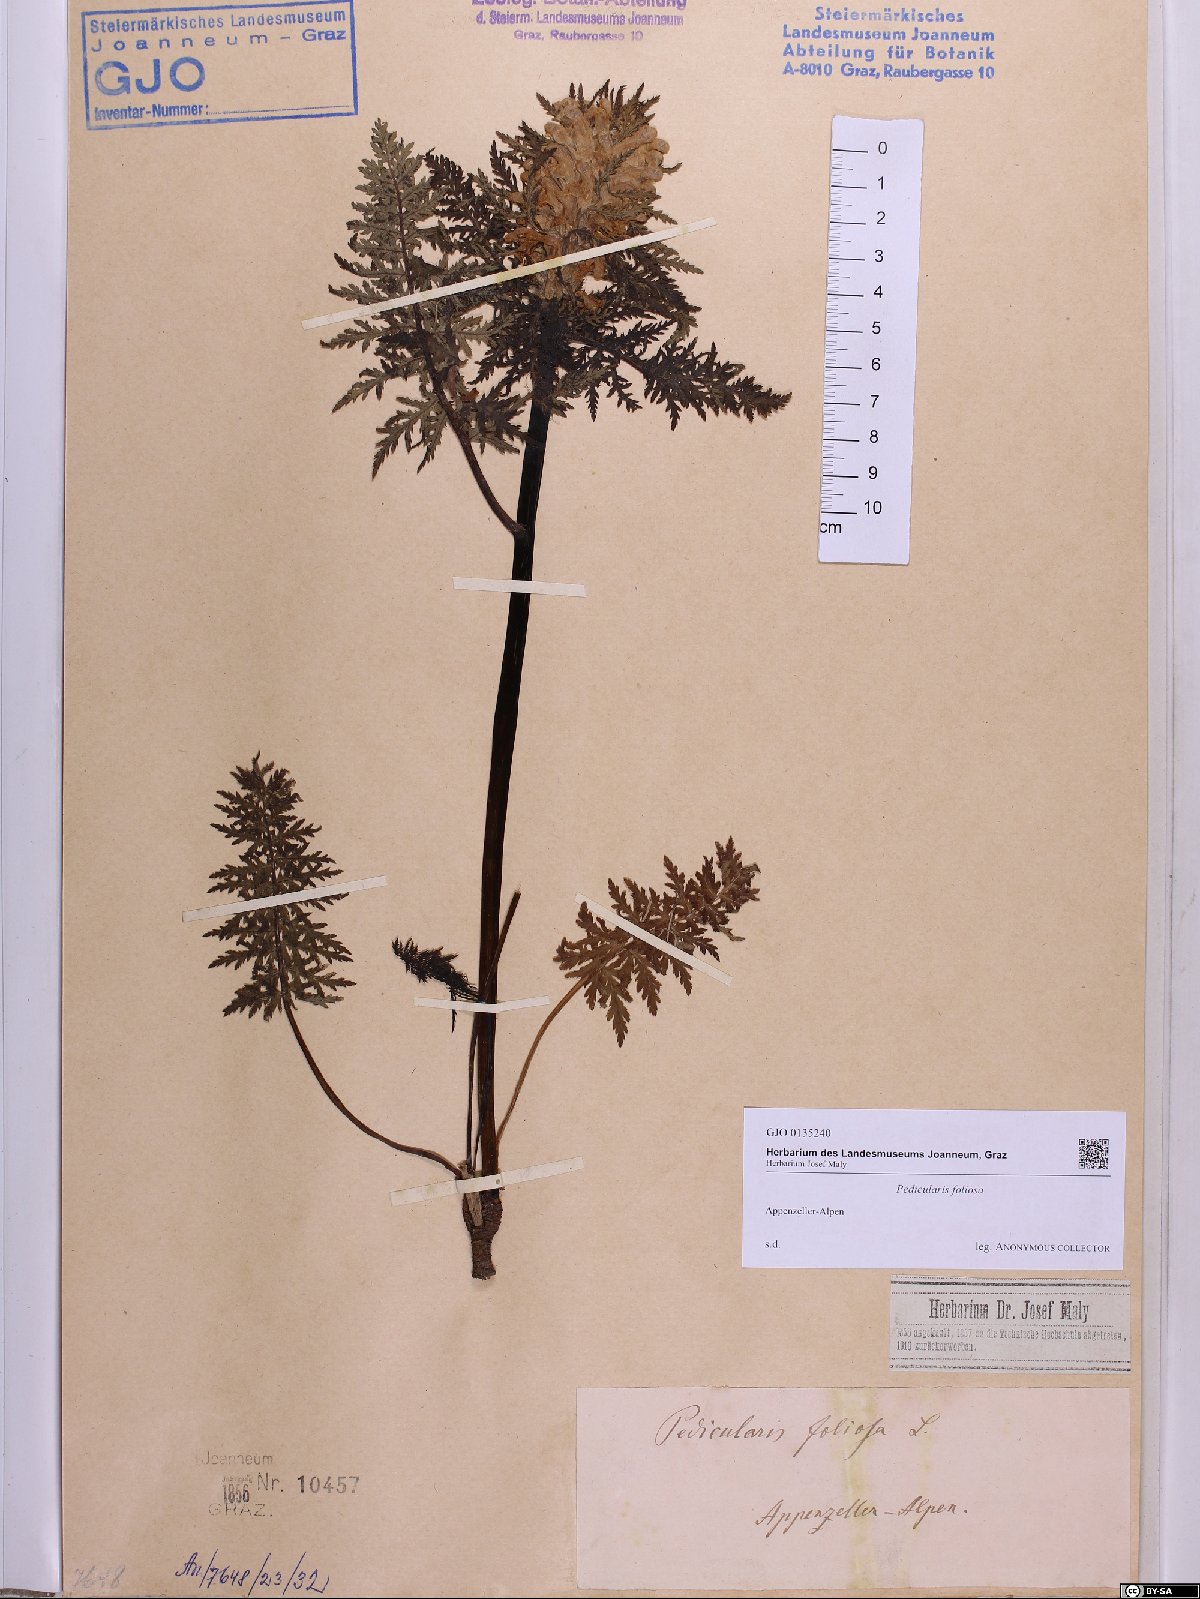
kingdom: Plantae
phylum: Tracheophyta
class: Magnoliopsida
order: Lamiales
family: Orobanchaceae
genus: Pedicularis
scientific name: Pedicularis foliosa
